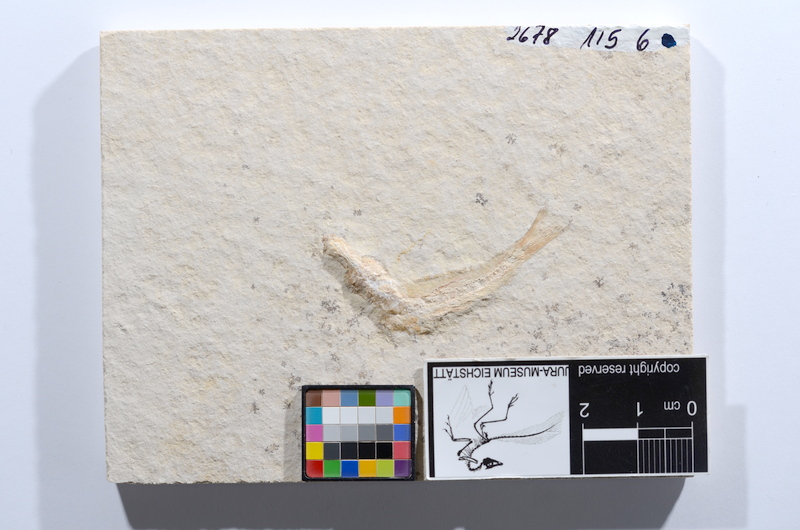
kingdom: Animalia
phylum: Chordata
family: Ascalaboidae
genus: Tharsis
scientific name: Tharsis dubius
